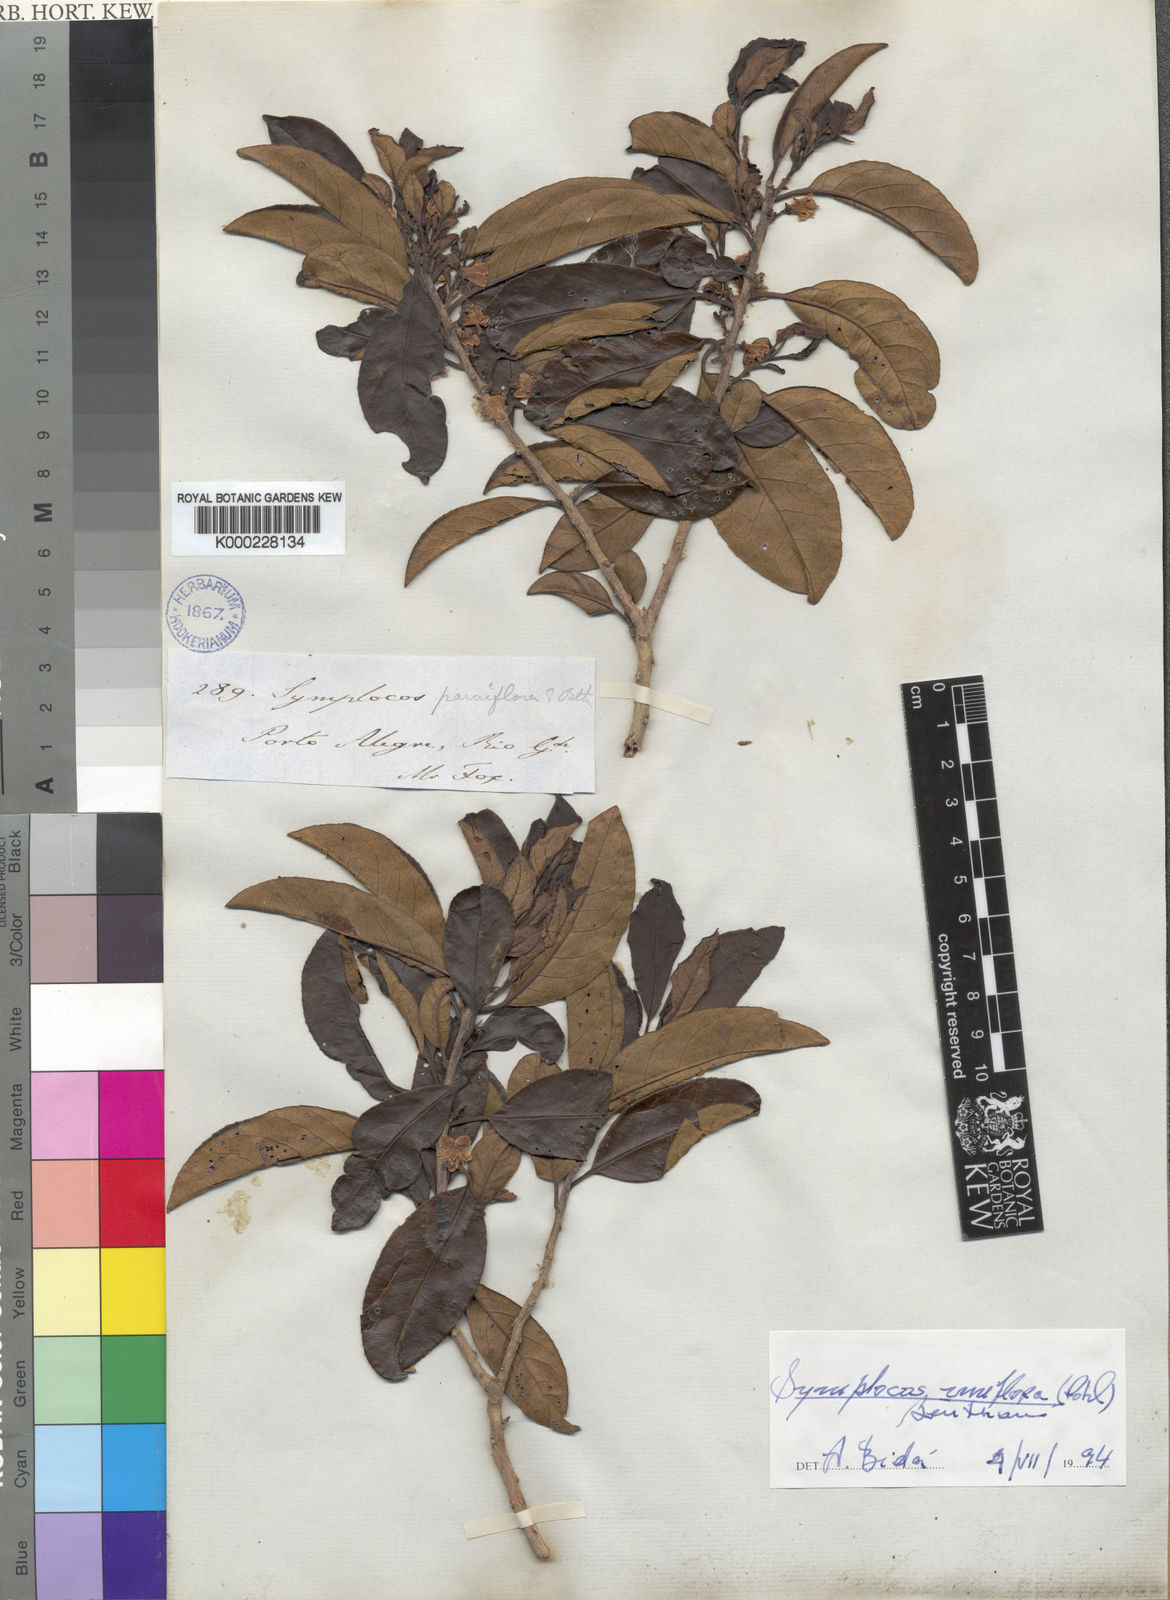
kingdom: Plantae
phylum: Tracheophyta
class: Magnoliopsida
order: Ericales
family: Symplocaceae
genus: Symplocos
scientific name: Symplocos uniflora
